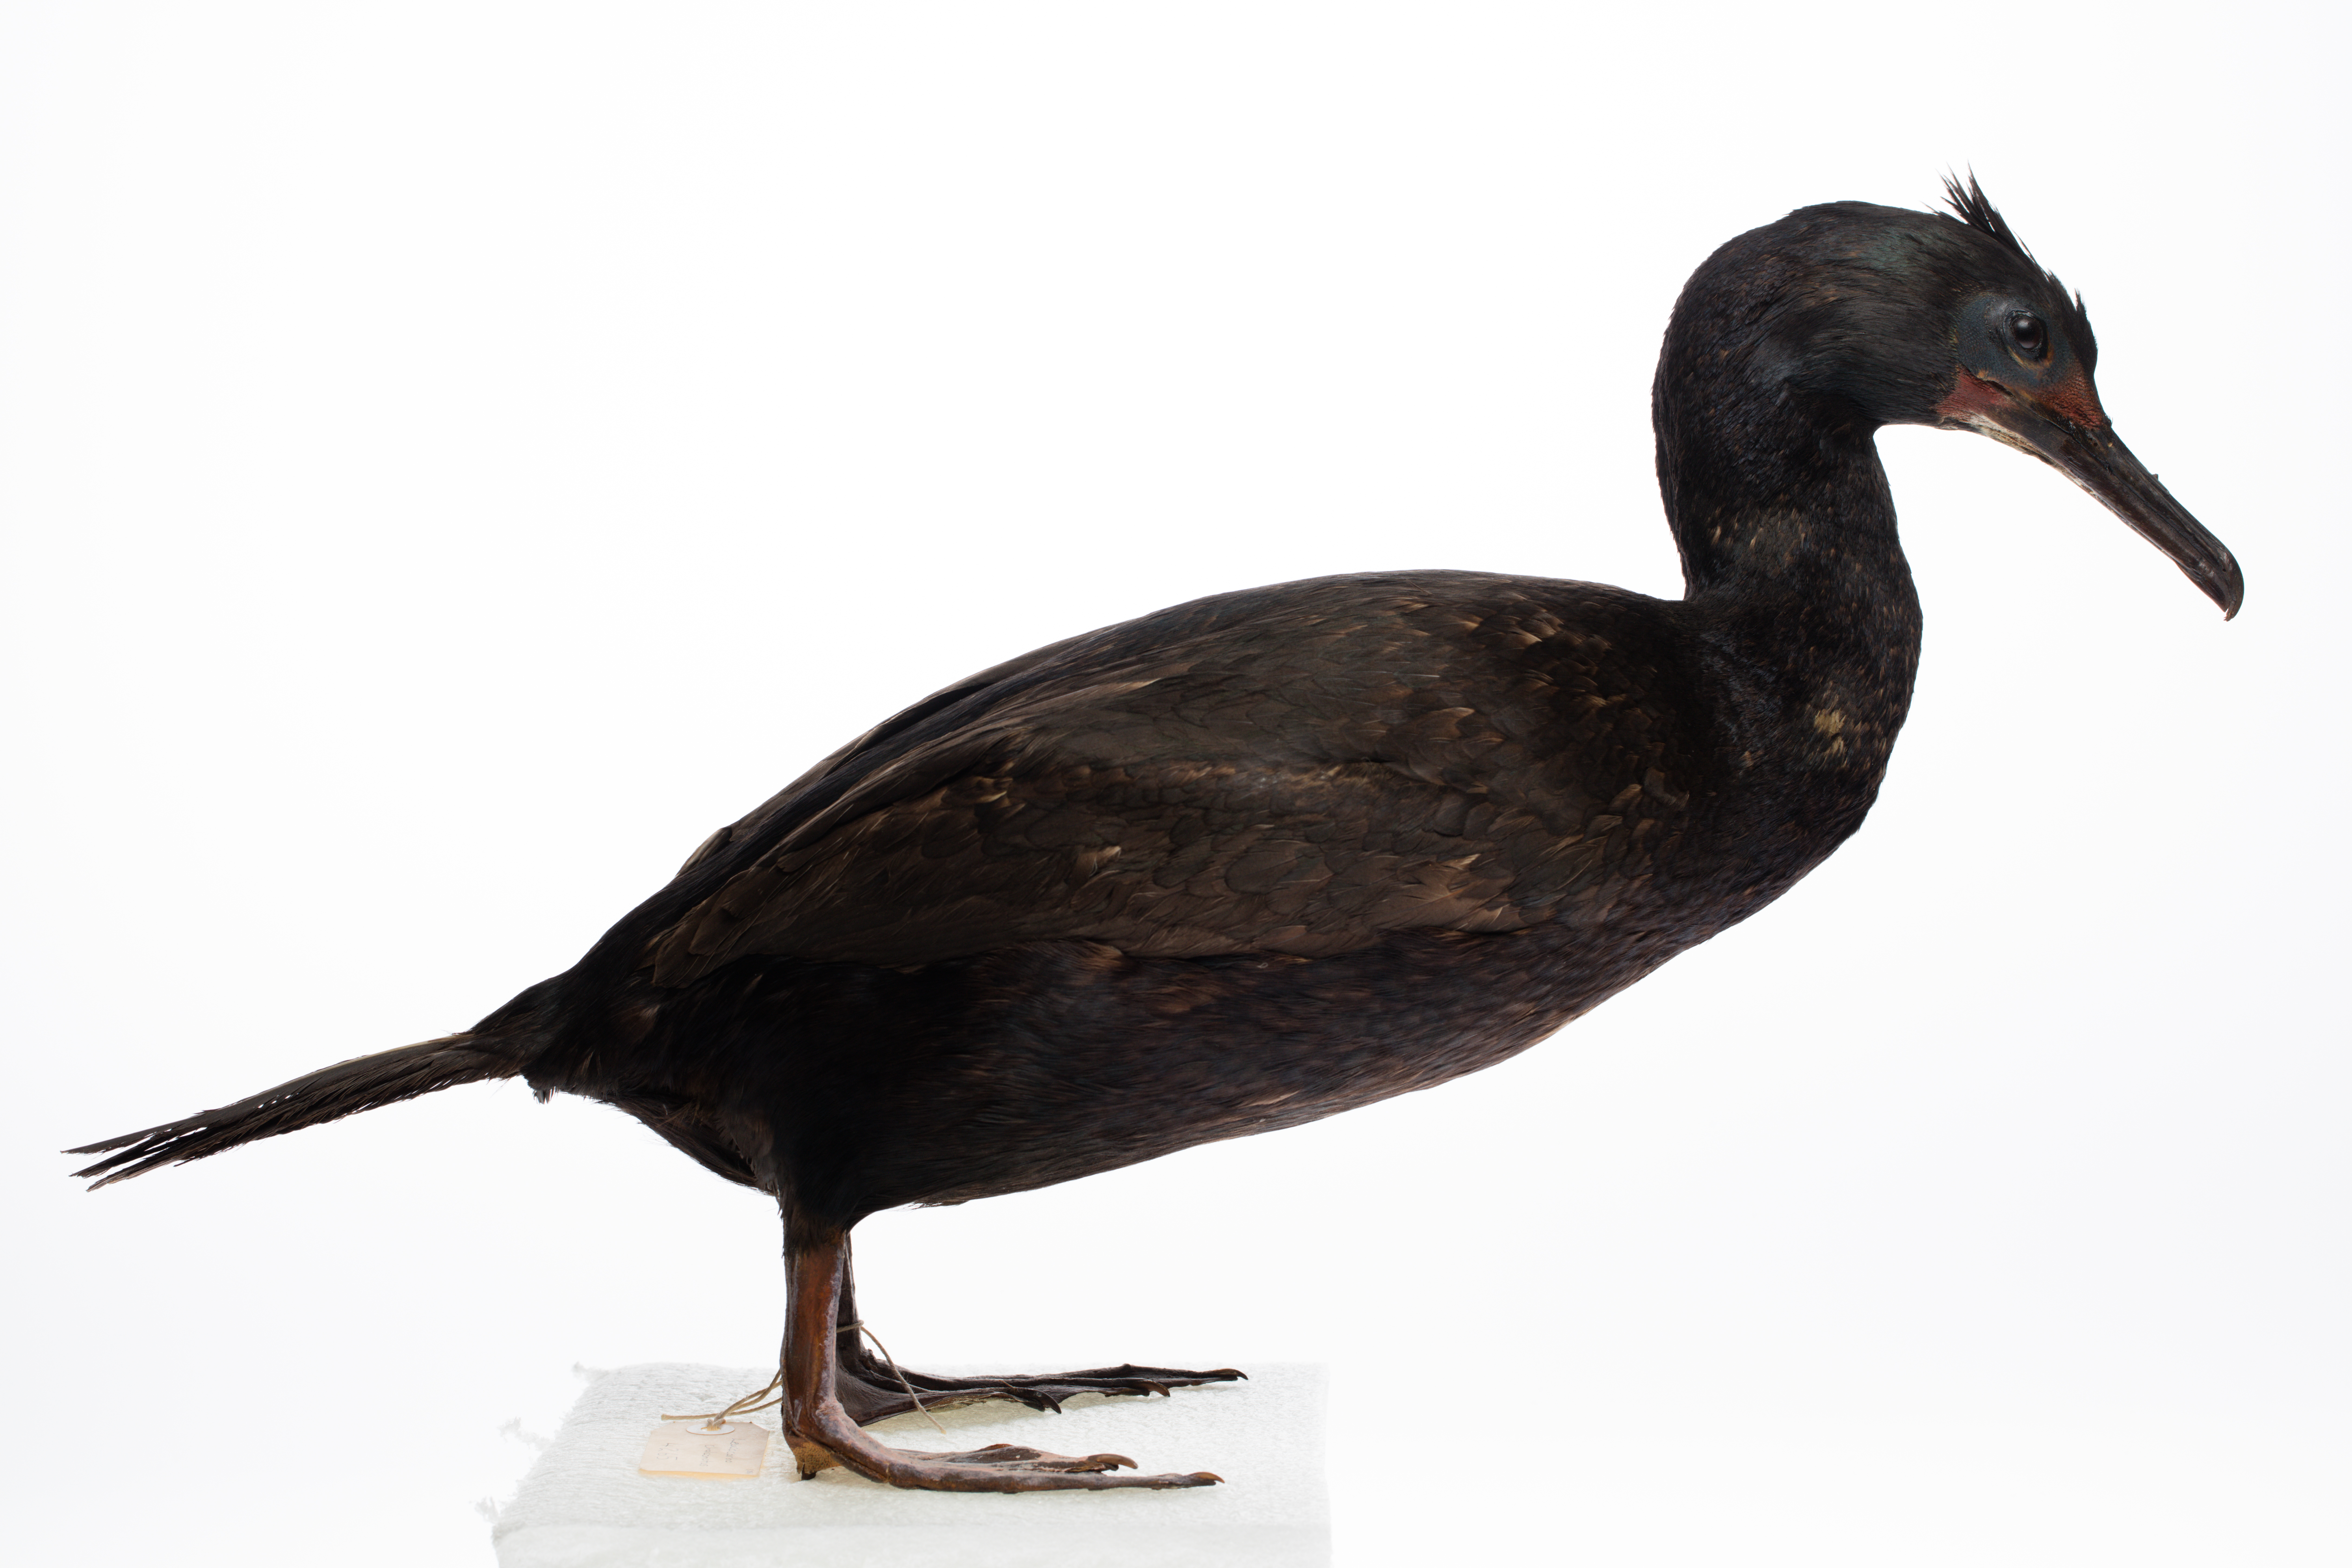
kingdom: Animalia
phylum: Chordata
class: Aves
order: Suliformes
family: Phalacrocoracidae
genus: Leucocarbo
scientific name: Leucocarbo chalconotus
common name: Stewart shag
